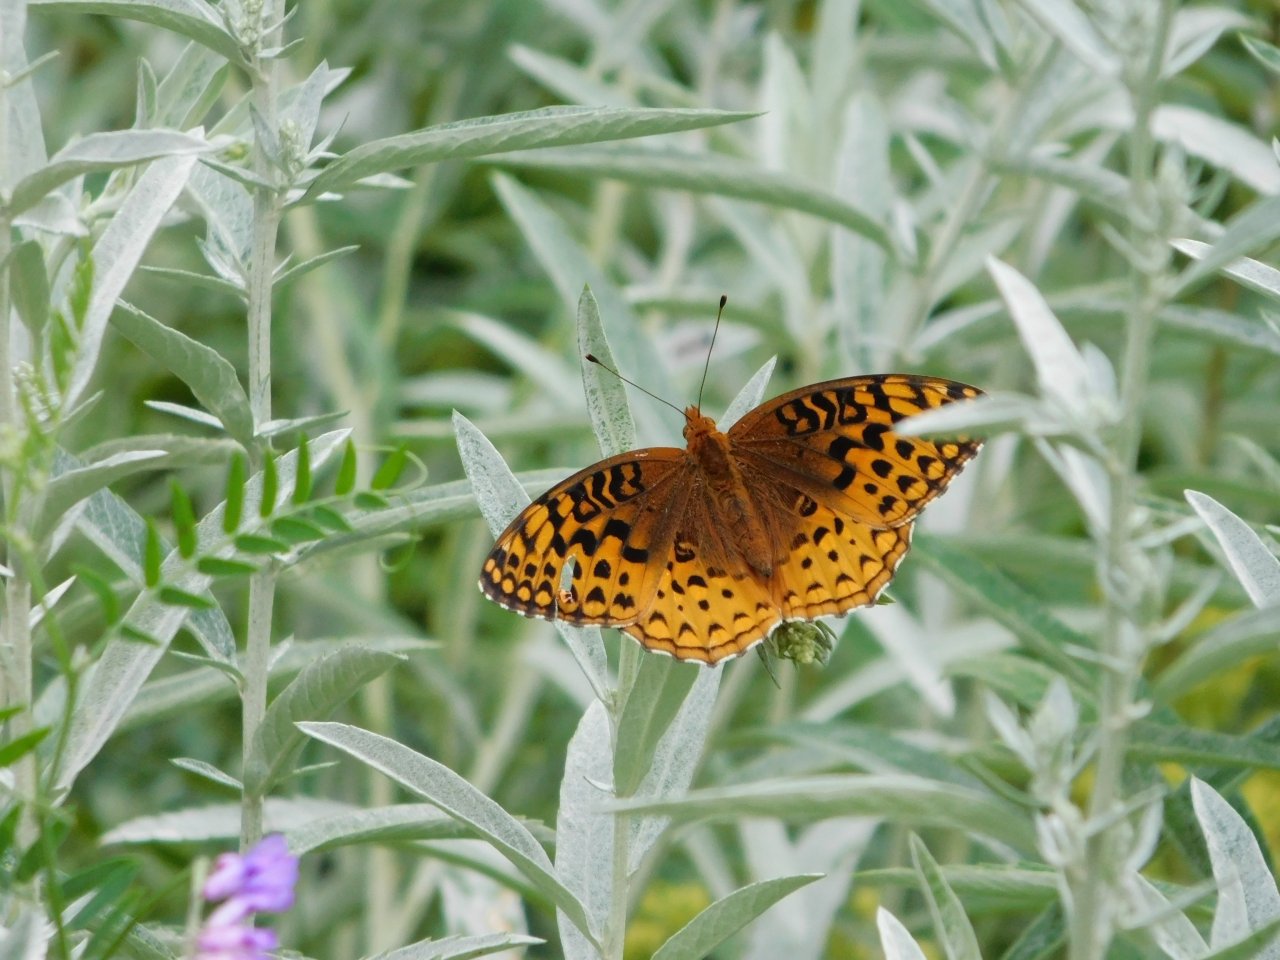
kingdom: Animalia
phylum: Arthropoda
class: Insecta
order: Lepidoptera
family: Nymphalidae
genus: Speyeria
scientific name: Speyeria aphrodite
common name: Aphrodite Fritillary
